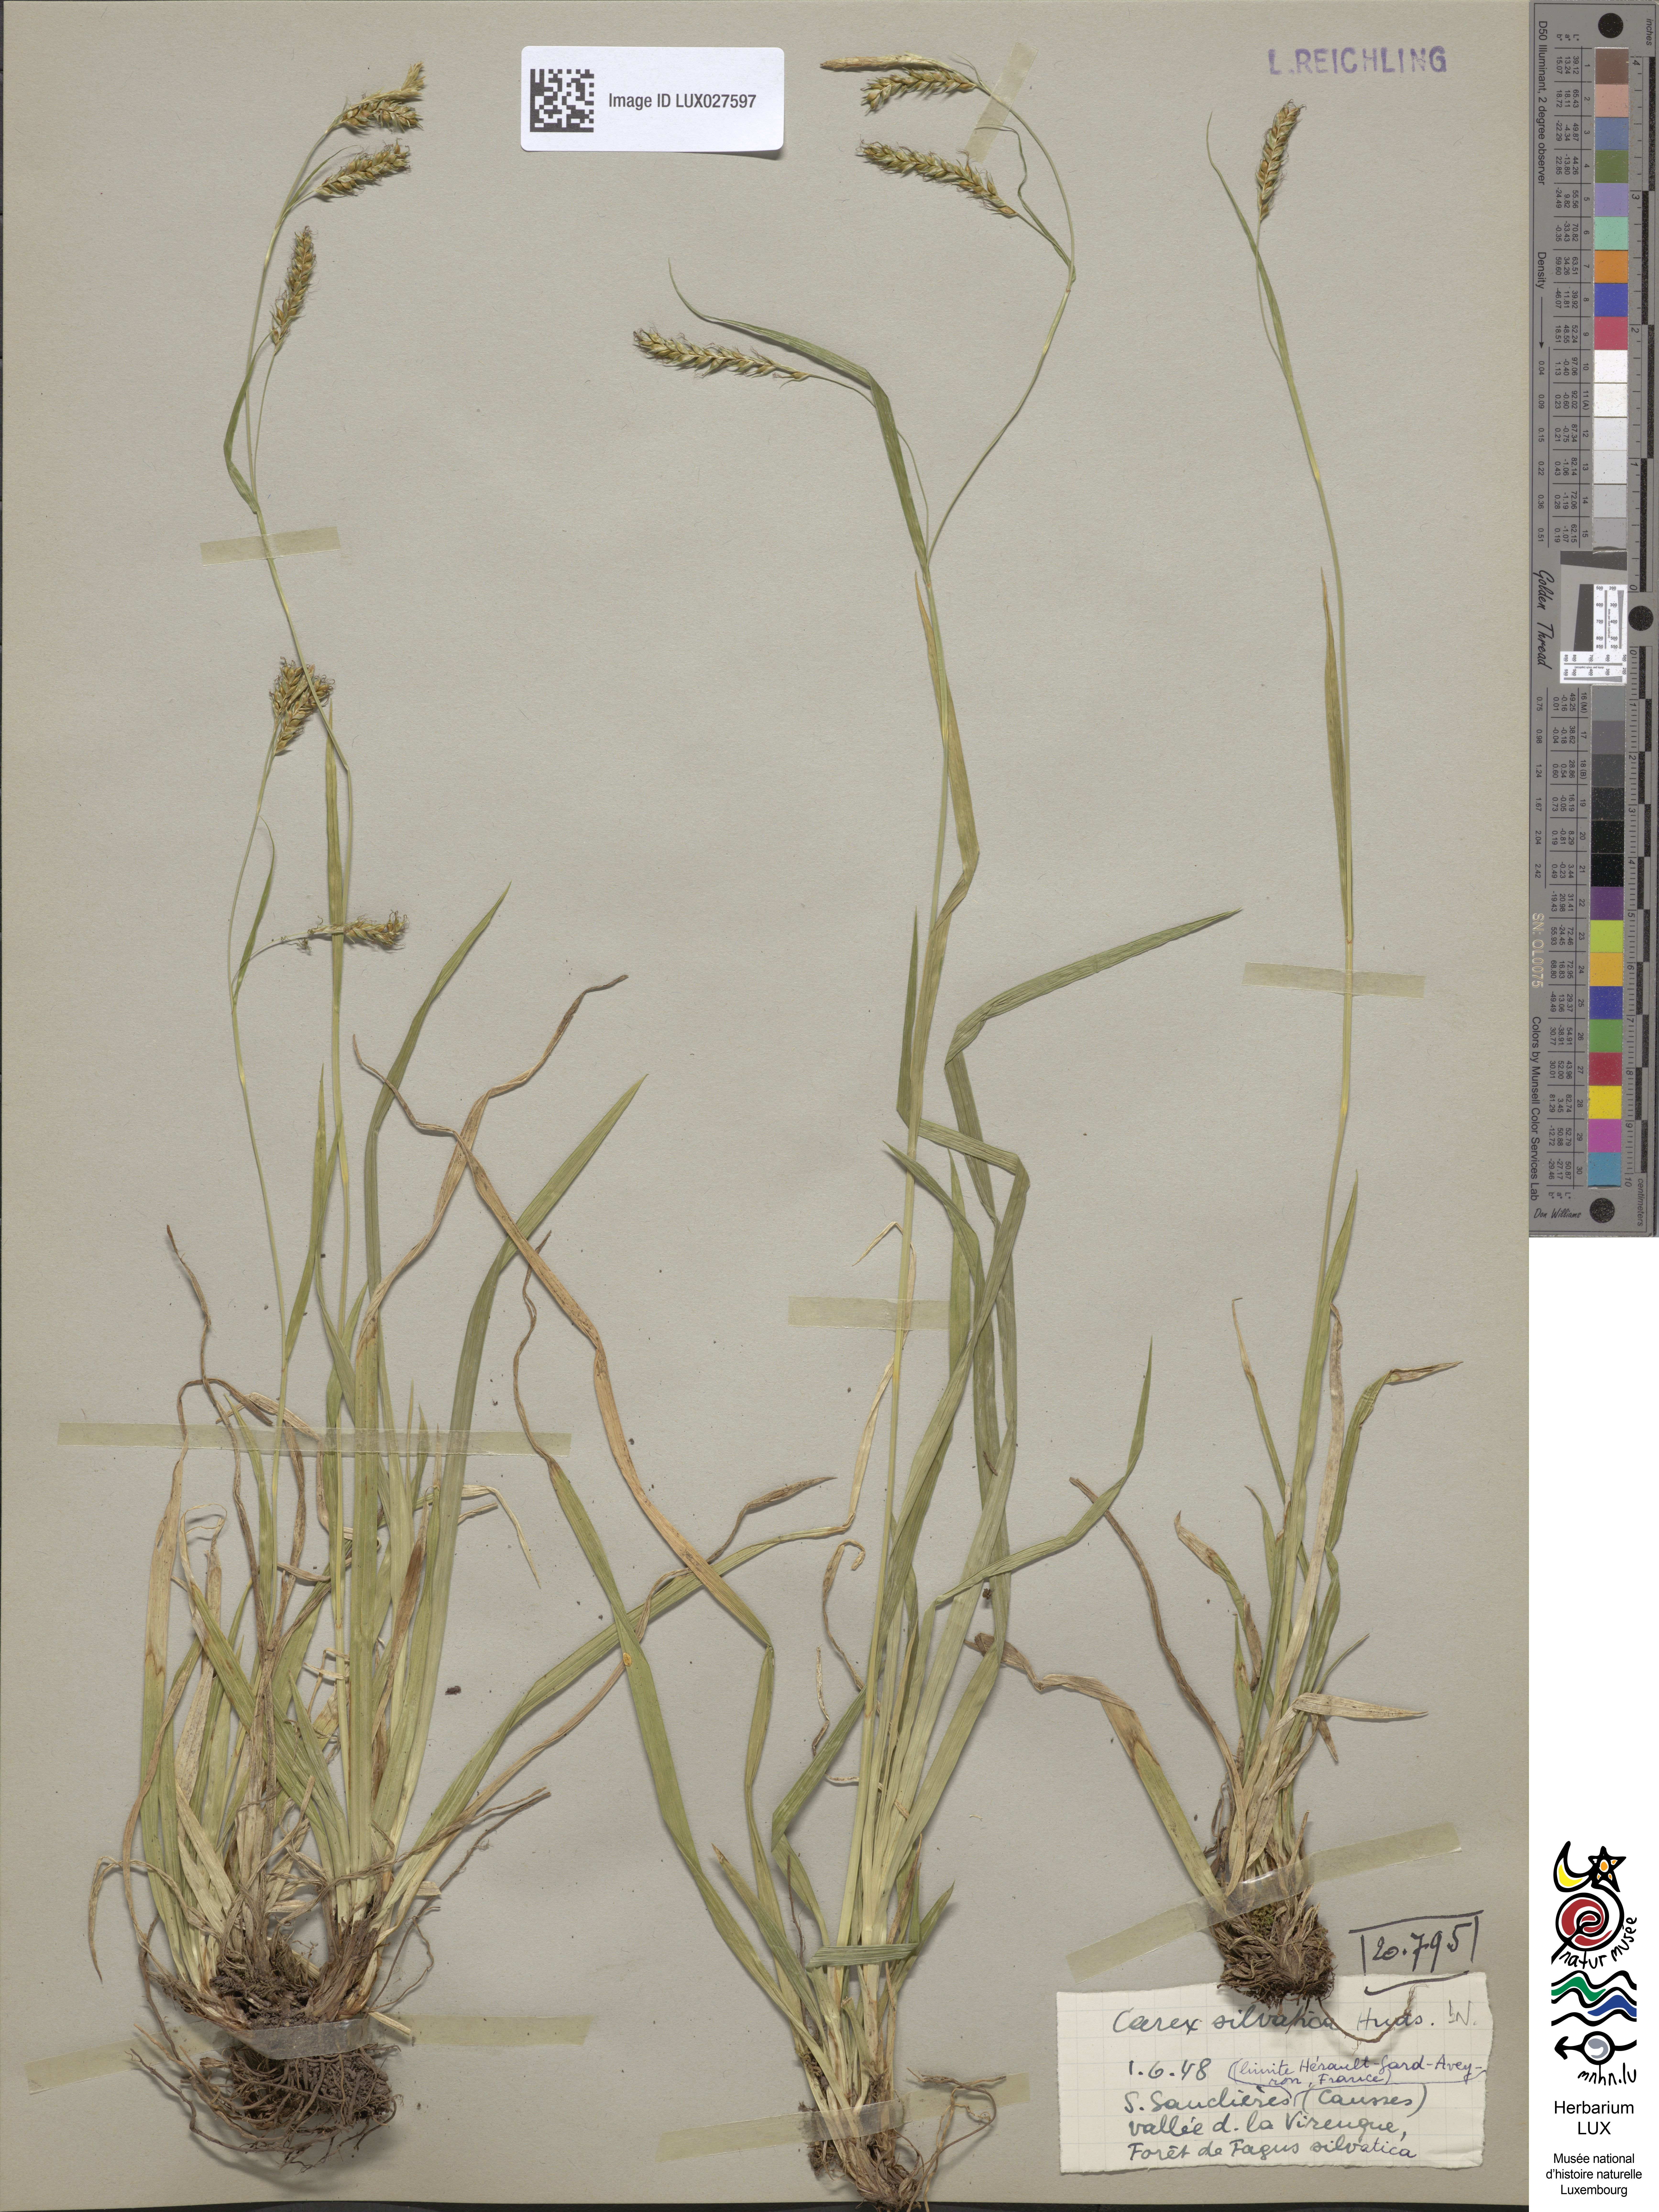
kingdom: Plantae
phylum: Tracheophyta
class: Liliopsida
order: Poales
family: Cyperaceae
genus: Carex
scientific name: Carex sylvatica
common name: Wood-sedge
